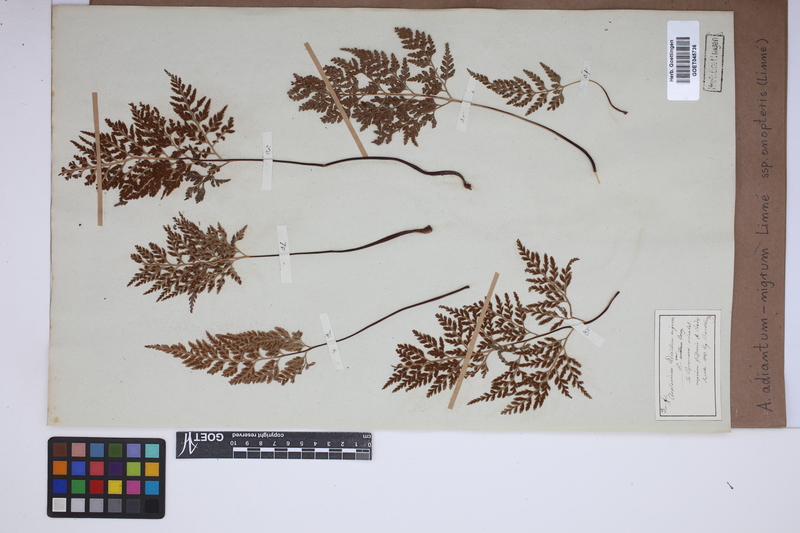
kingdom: Plantae
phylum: Tracheophyta
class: Polypodiopsida
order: Polypodiales
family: Aspleniaceae
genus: Asplenium
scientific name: Asplenium onopteris
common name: Irish spleenwort
